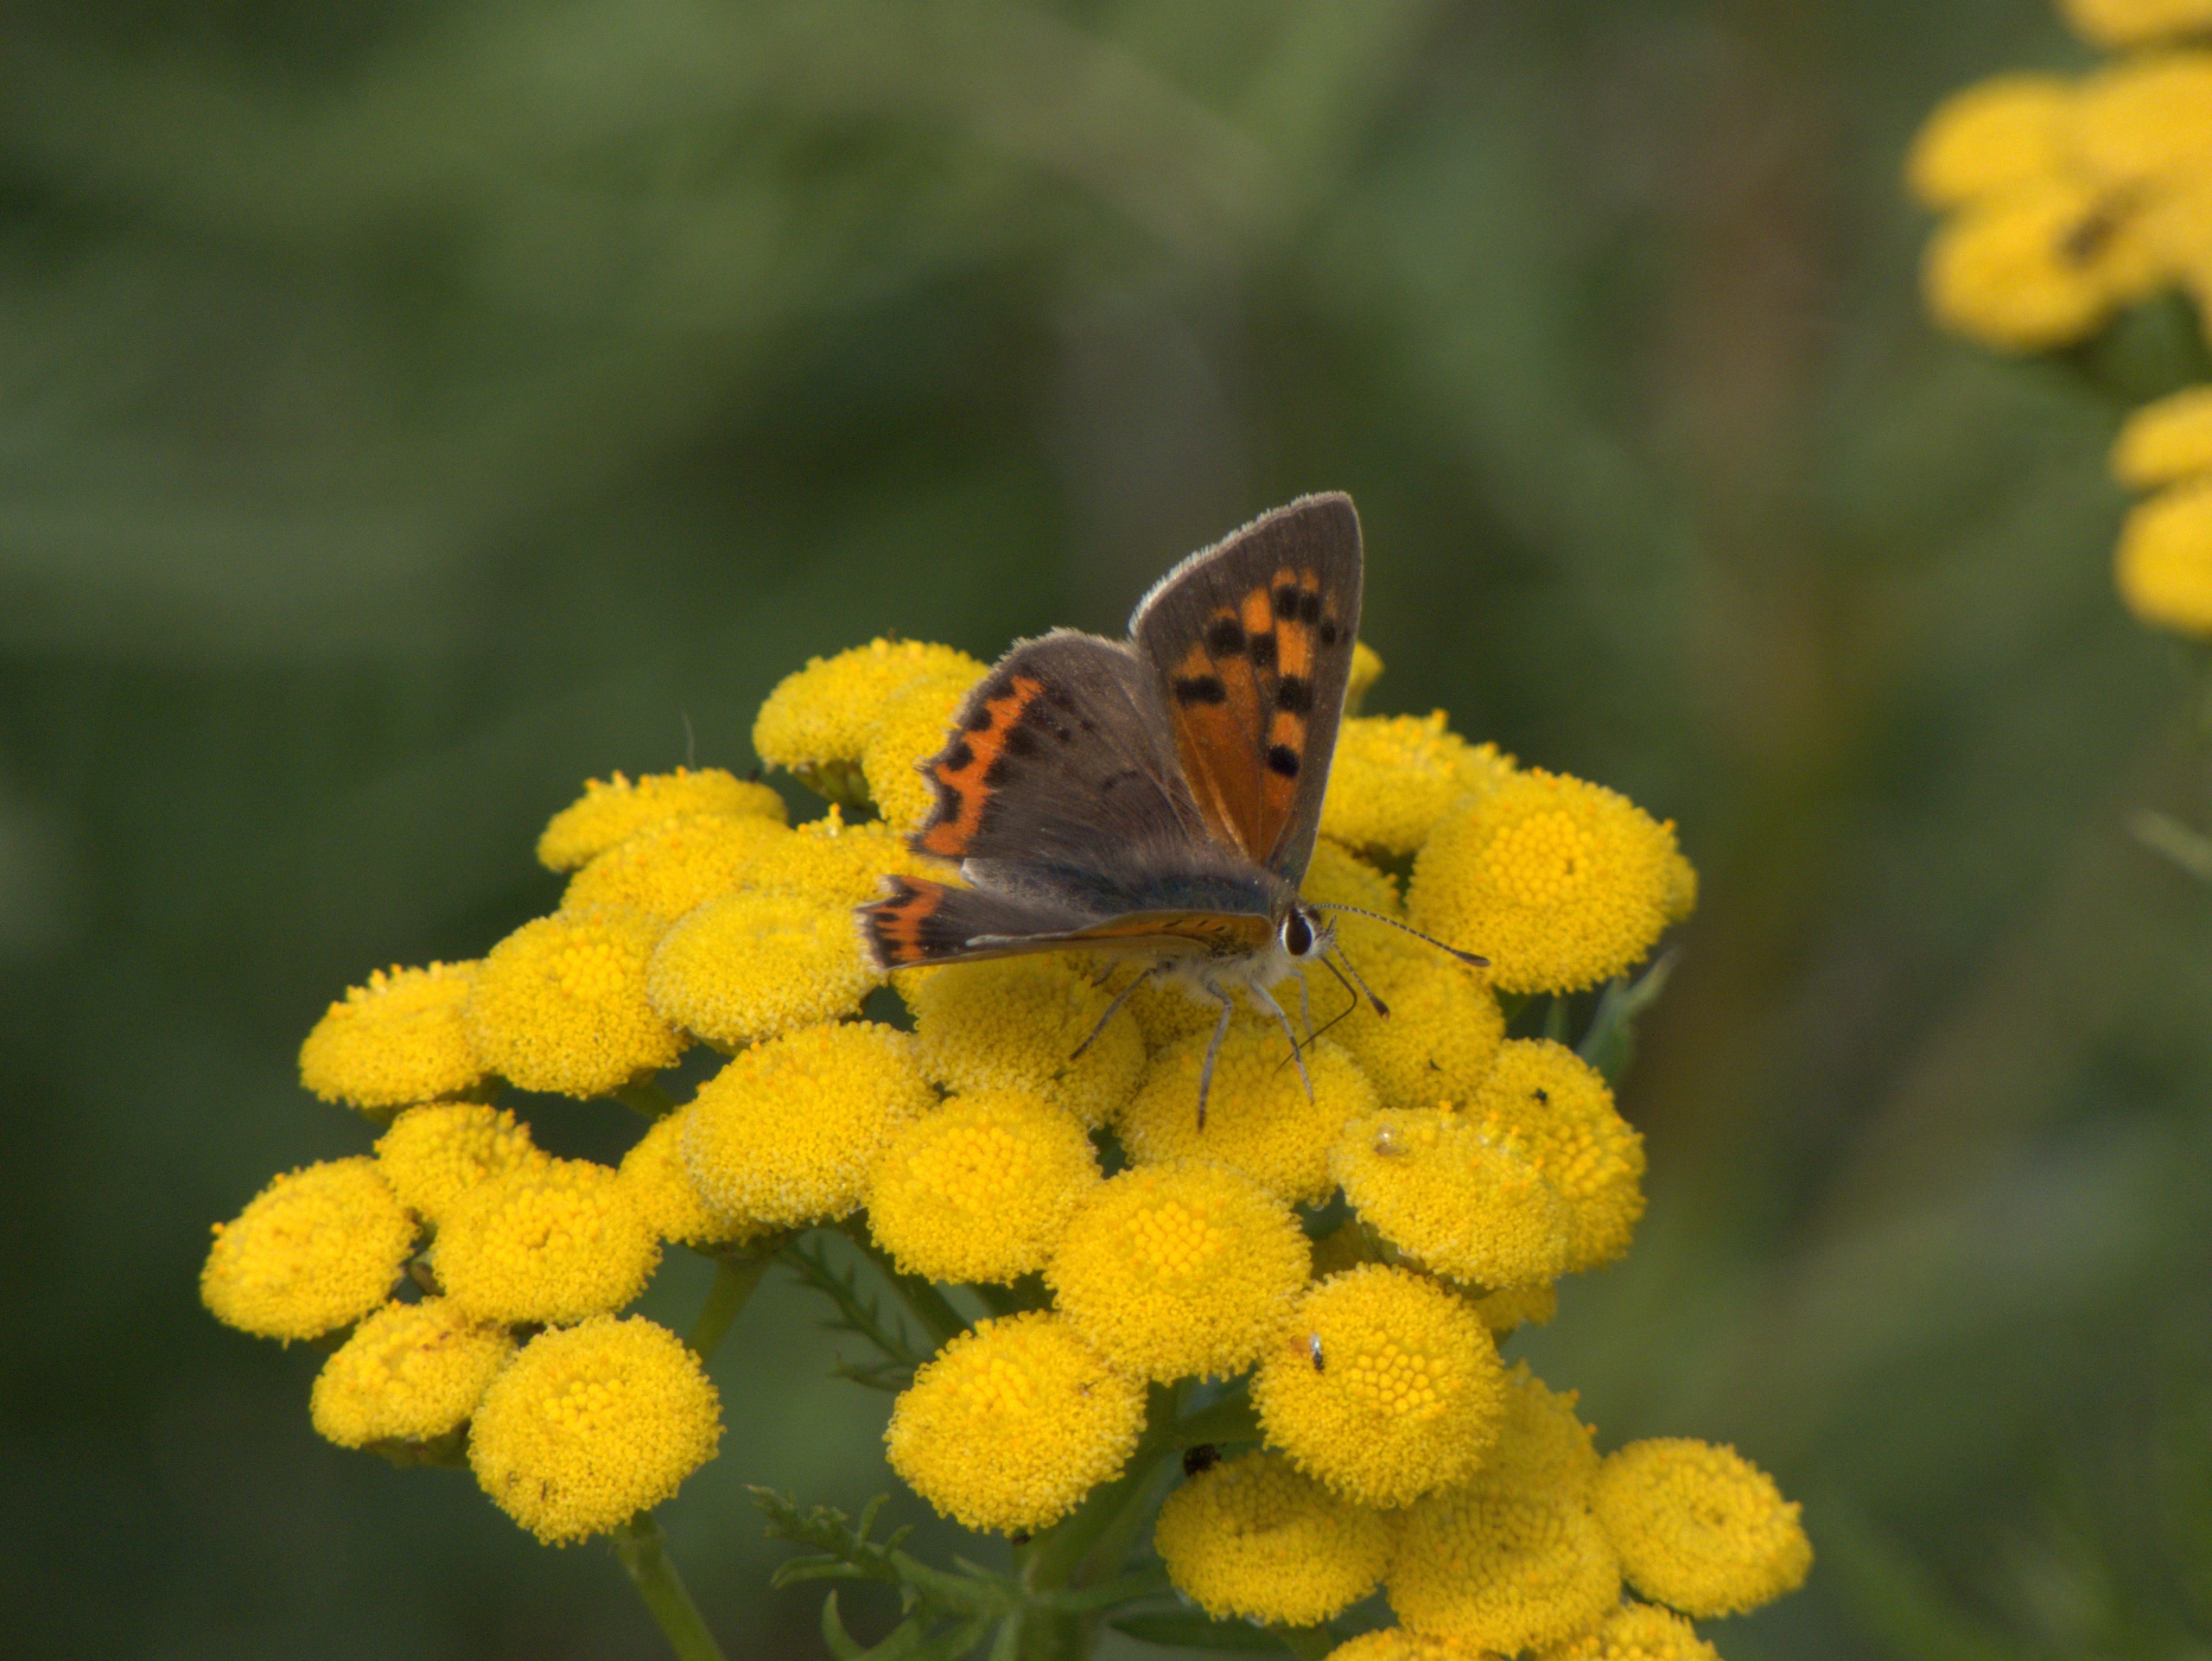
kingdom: Animalia
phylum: Arthropoda
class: Insecta
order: Lepidoptera
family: Lycaenidae
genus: Lycaena
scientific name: Lycaena phlaeas
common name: Lille ildfugl
